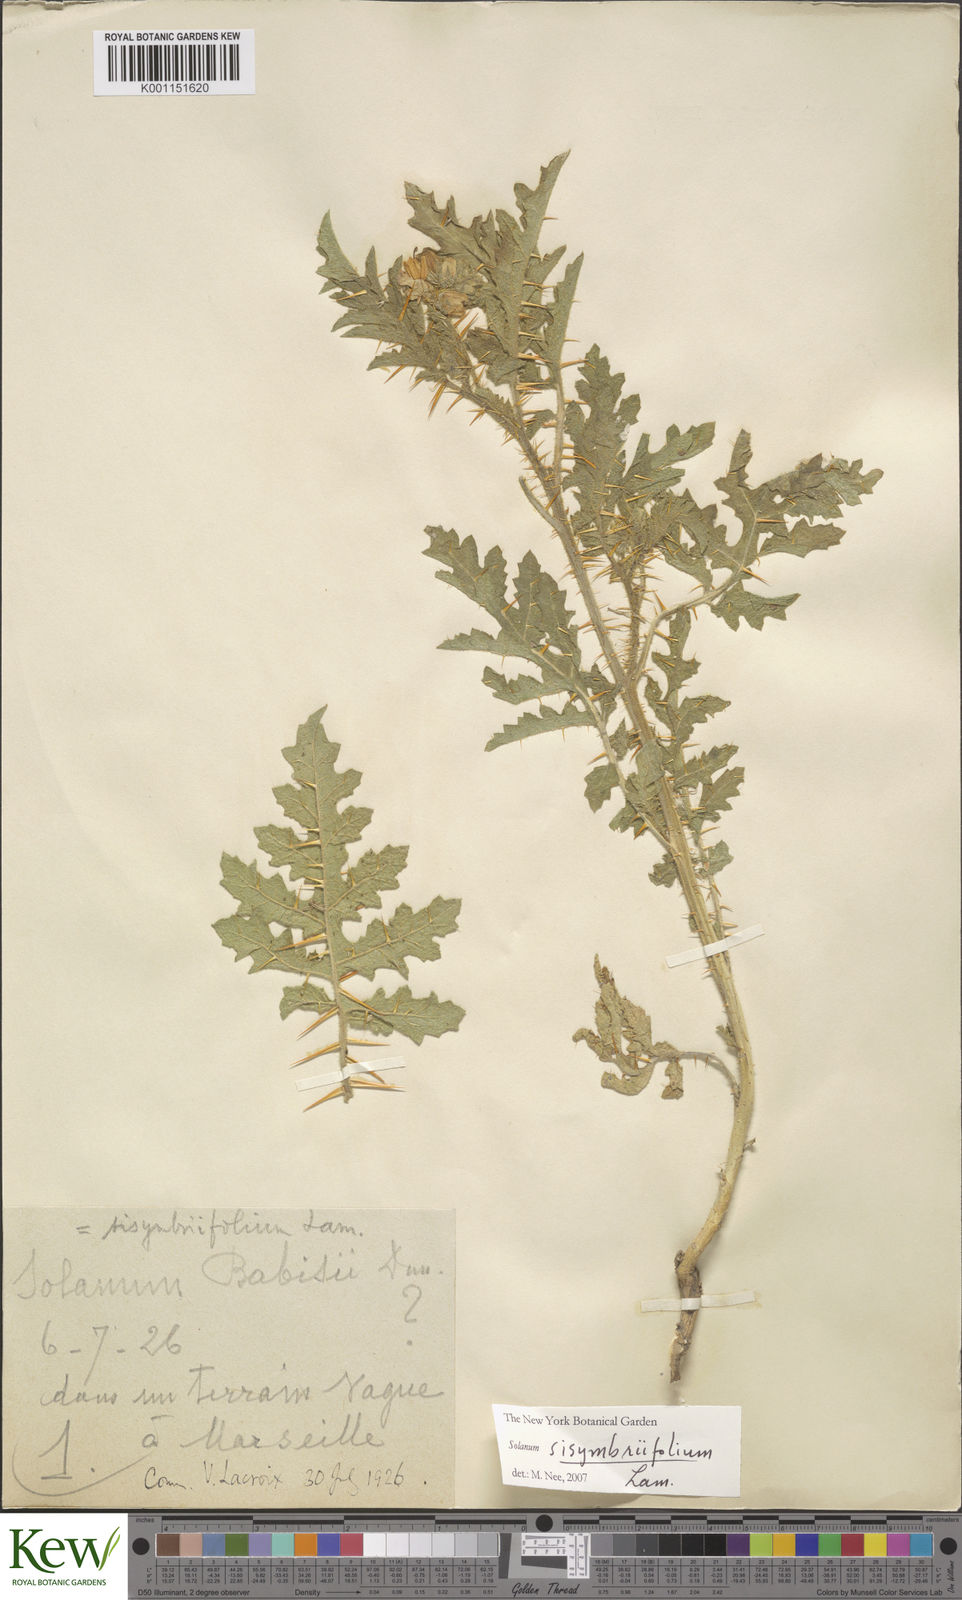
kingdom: Plantae
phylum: Tracheophyta
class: Magnoliopsida
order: Solanales
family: Solanaceae
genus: Solanum
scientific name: Solanum sisymbriifolium
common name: Red buffalo-bur
